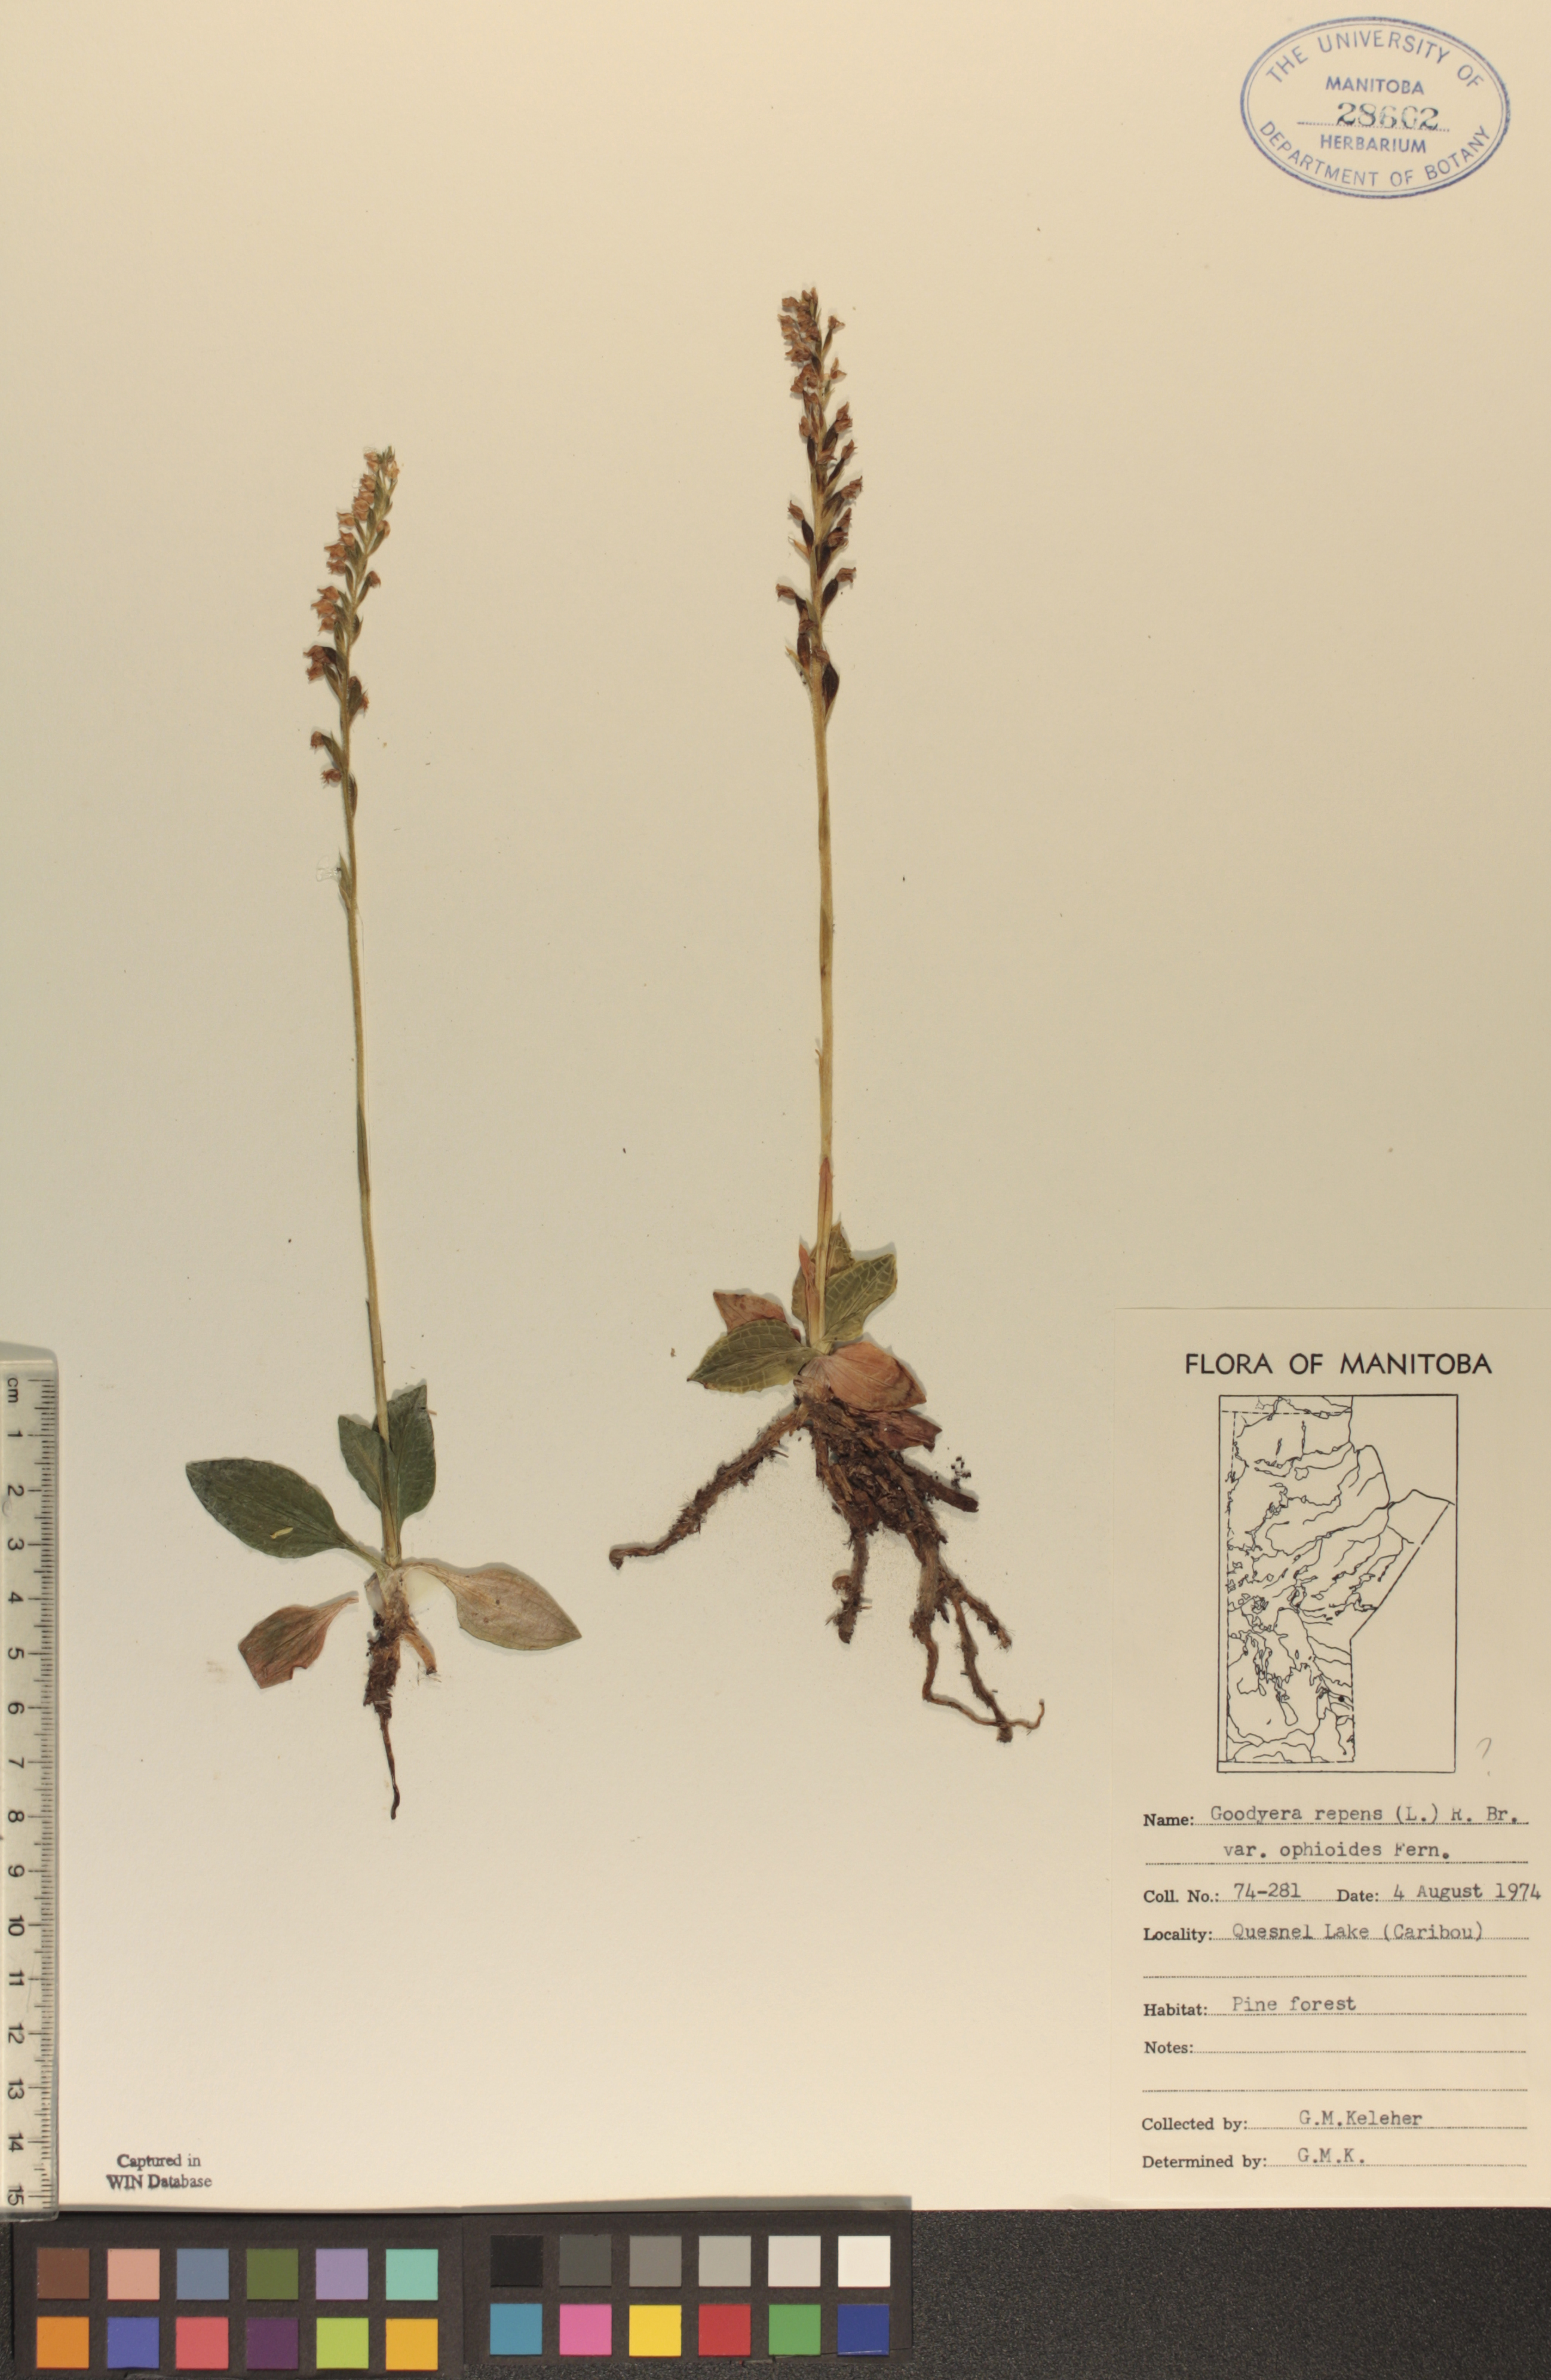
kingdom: Plantae
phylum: Tracheophyta
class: Liliopsida
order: Asparagales
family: Orchidaceae
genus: Goodyera
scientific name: Goodyera repens
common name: Creeping lady's-tresses
